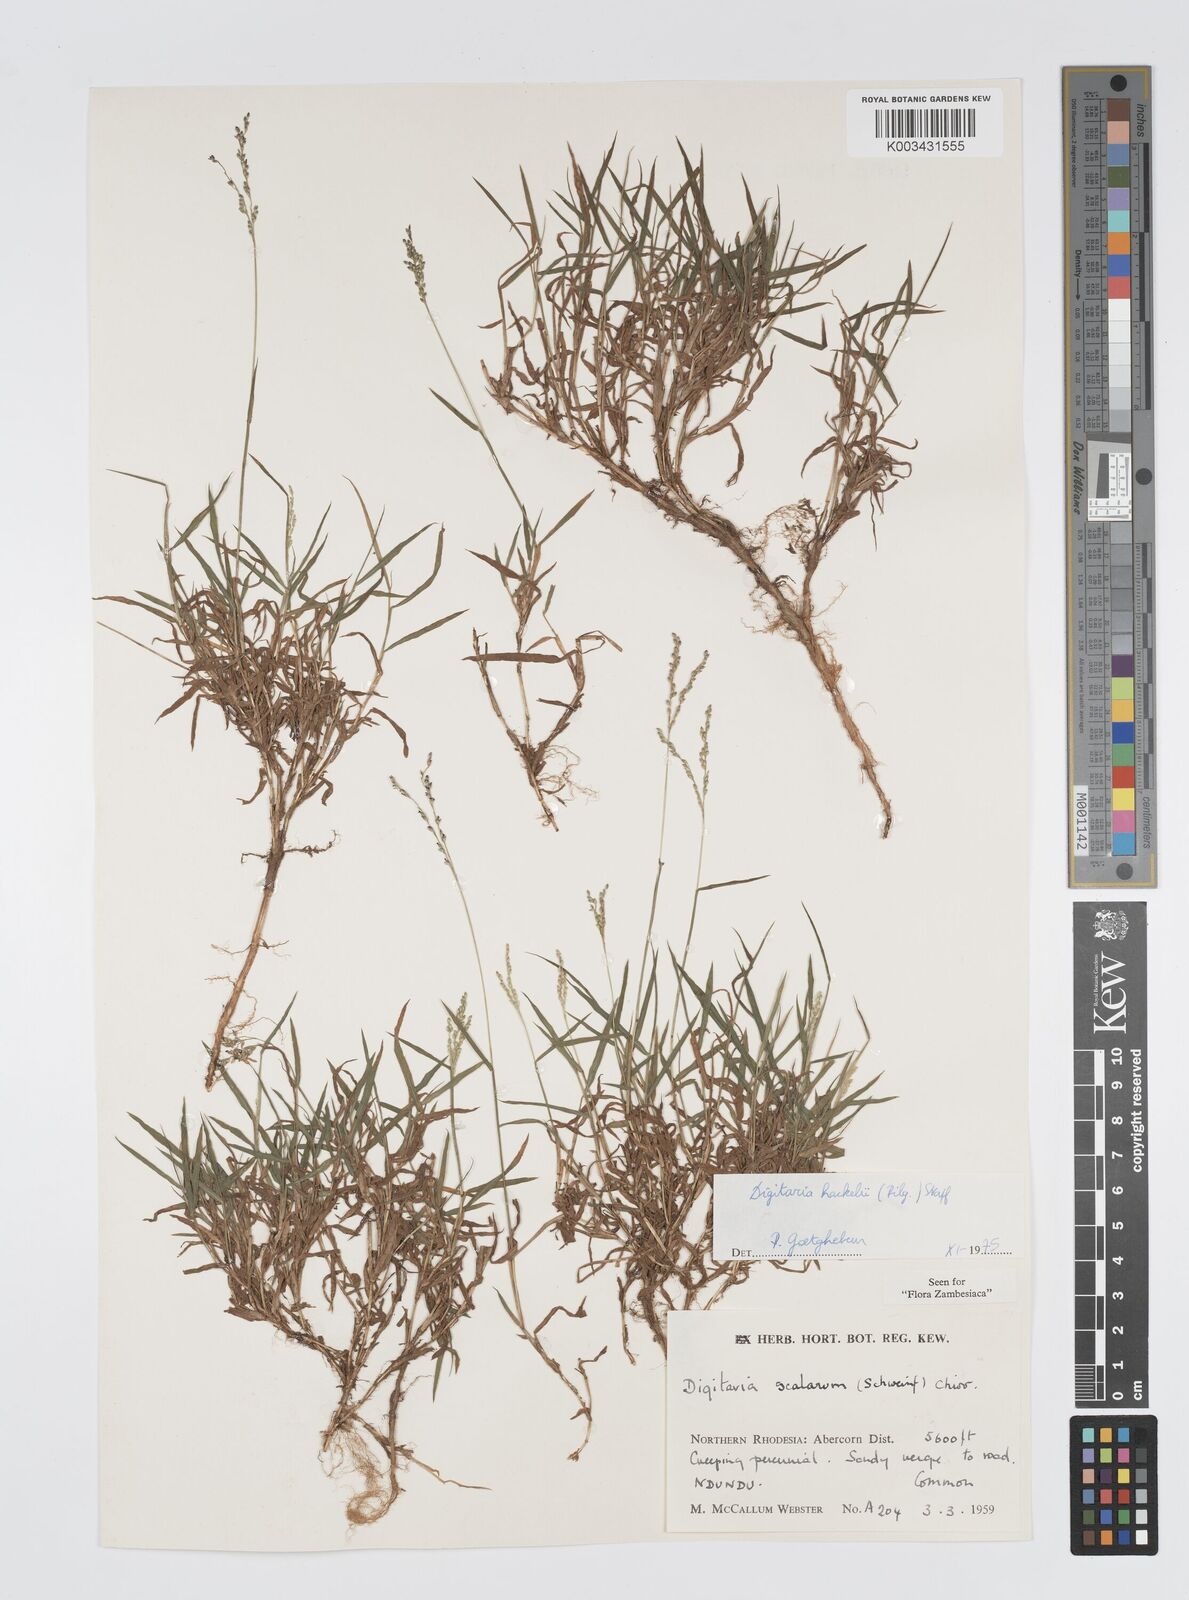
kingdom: Plantae
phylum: Tracheophyta
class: Liliopsida
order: Poales
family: Poaceae
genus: Digitaria
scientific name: Digitaria abyssinica
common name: African couchgrass
